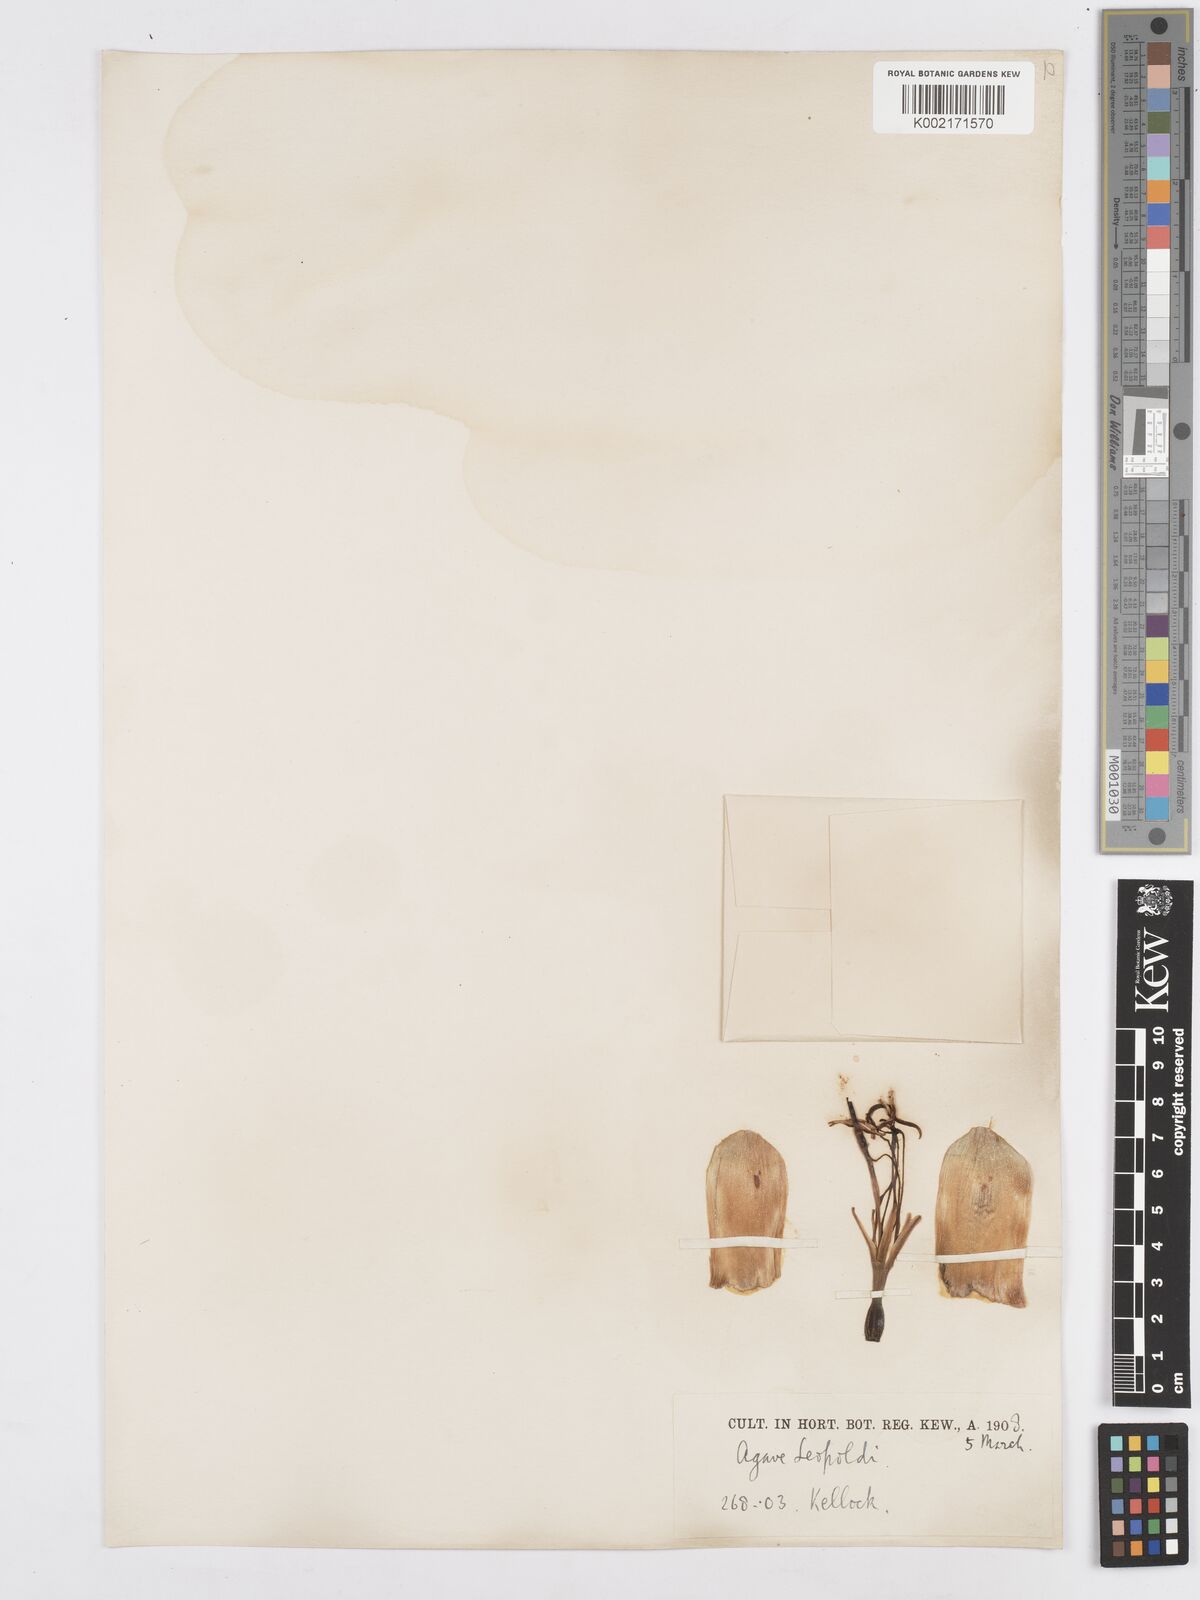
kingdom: Plantae
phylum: Tracheophyta
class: Liliopsida
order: Asparagales
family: Asparagaceae
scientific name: Asparagaceae
